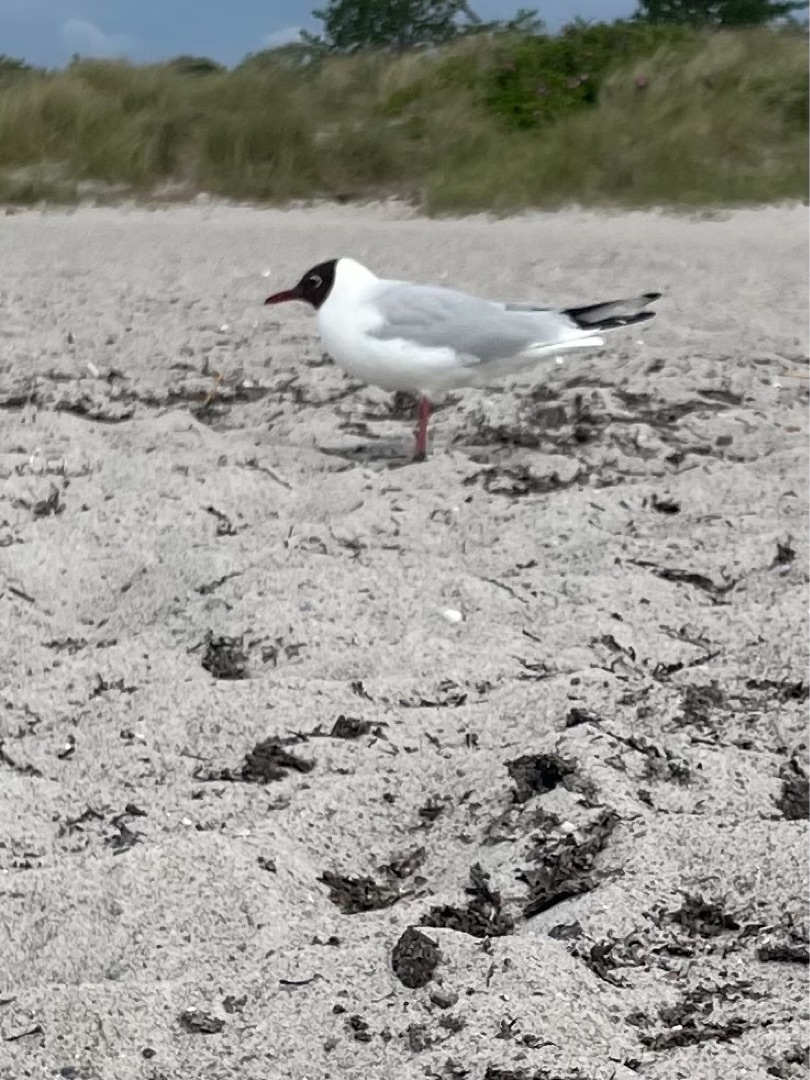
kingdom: Animalia
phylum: Chordata
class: Aves
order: Charadriiformes
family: Laridae
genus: Chroicocephalus
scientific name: Chroicocephalus ridibundus
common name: Hættemåge
